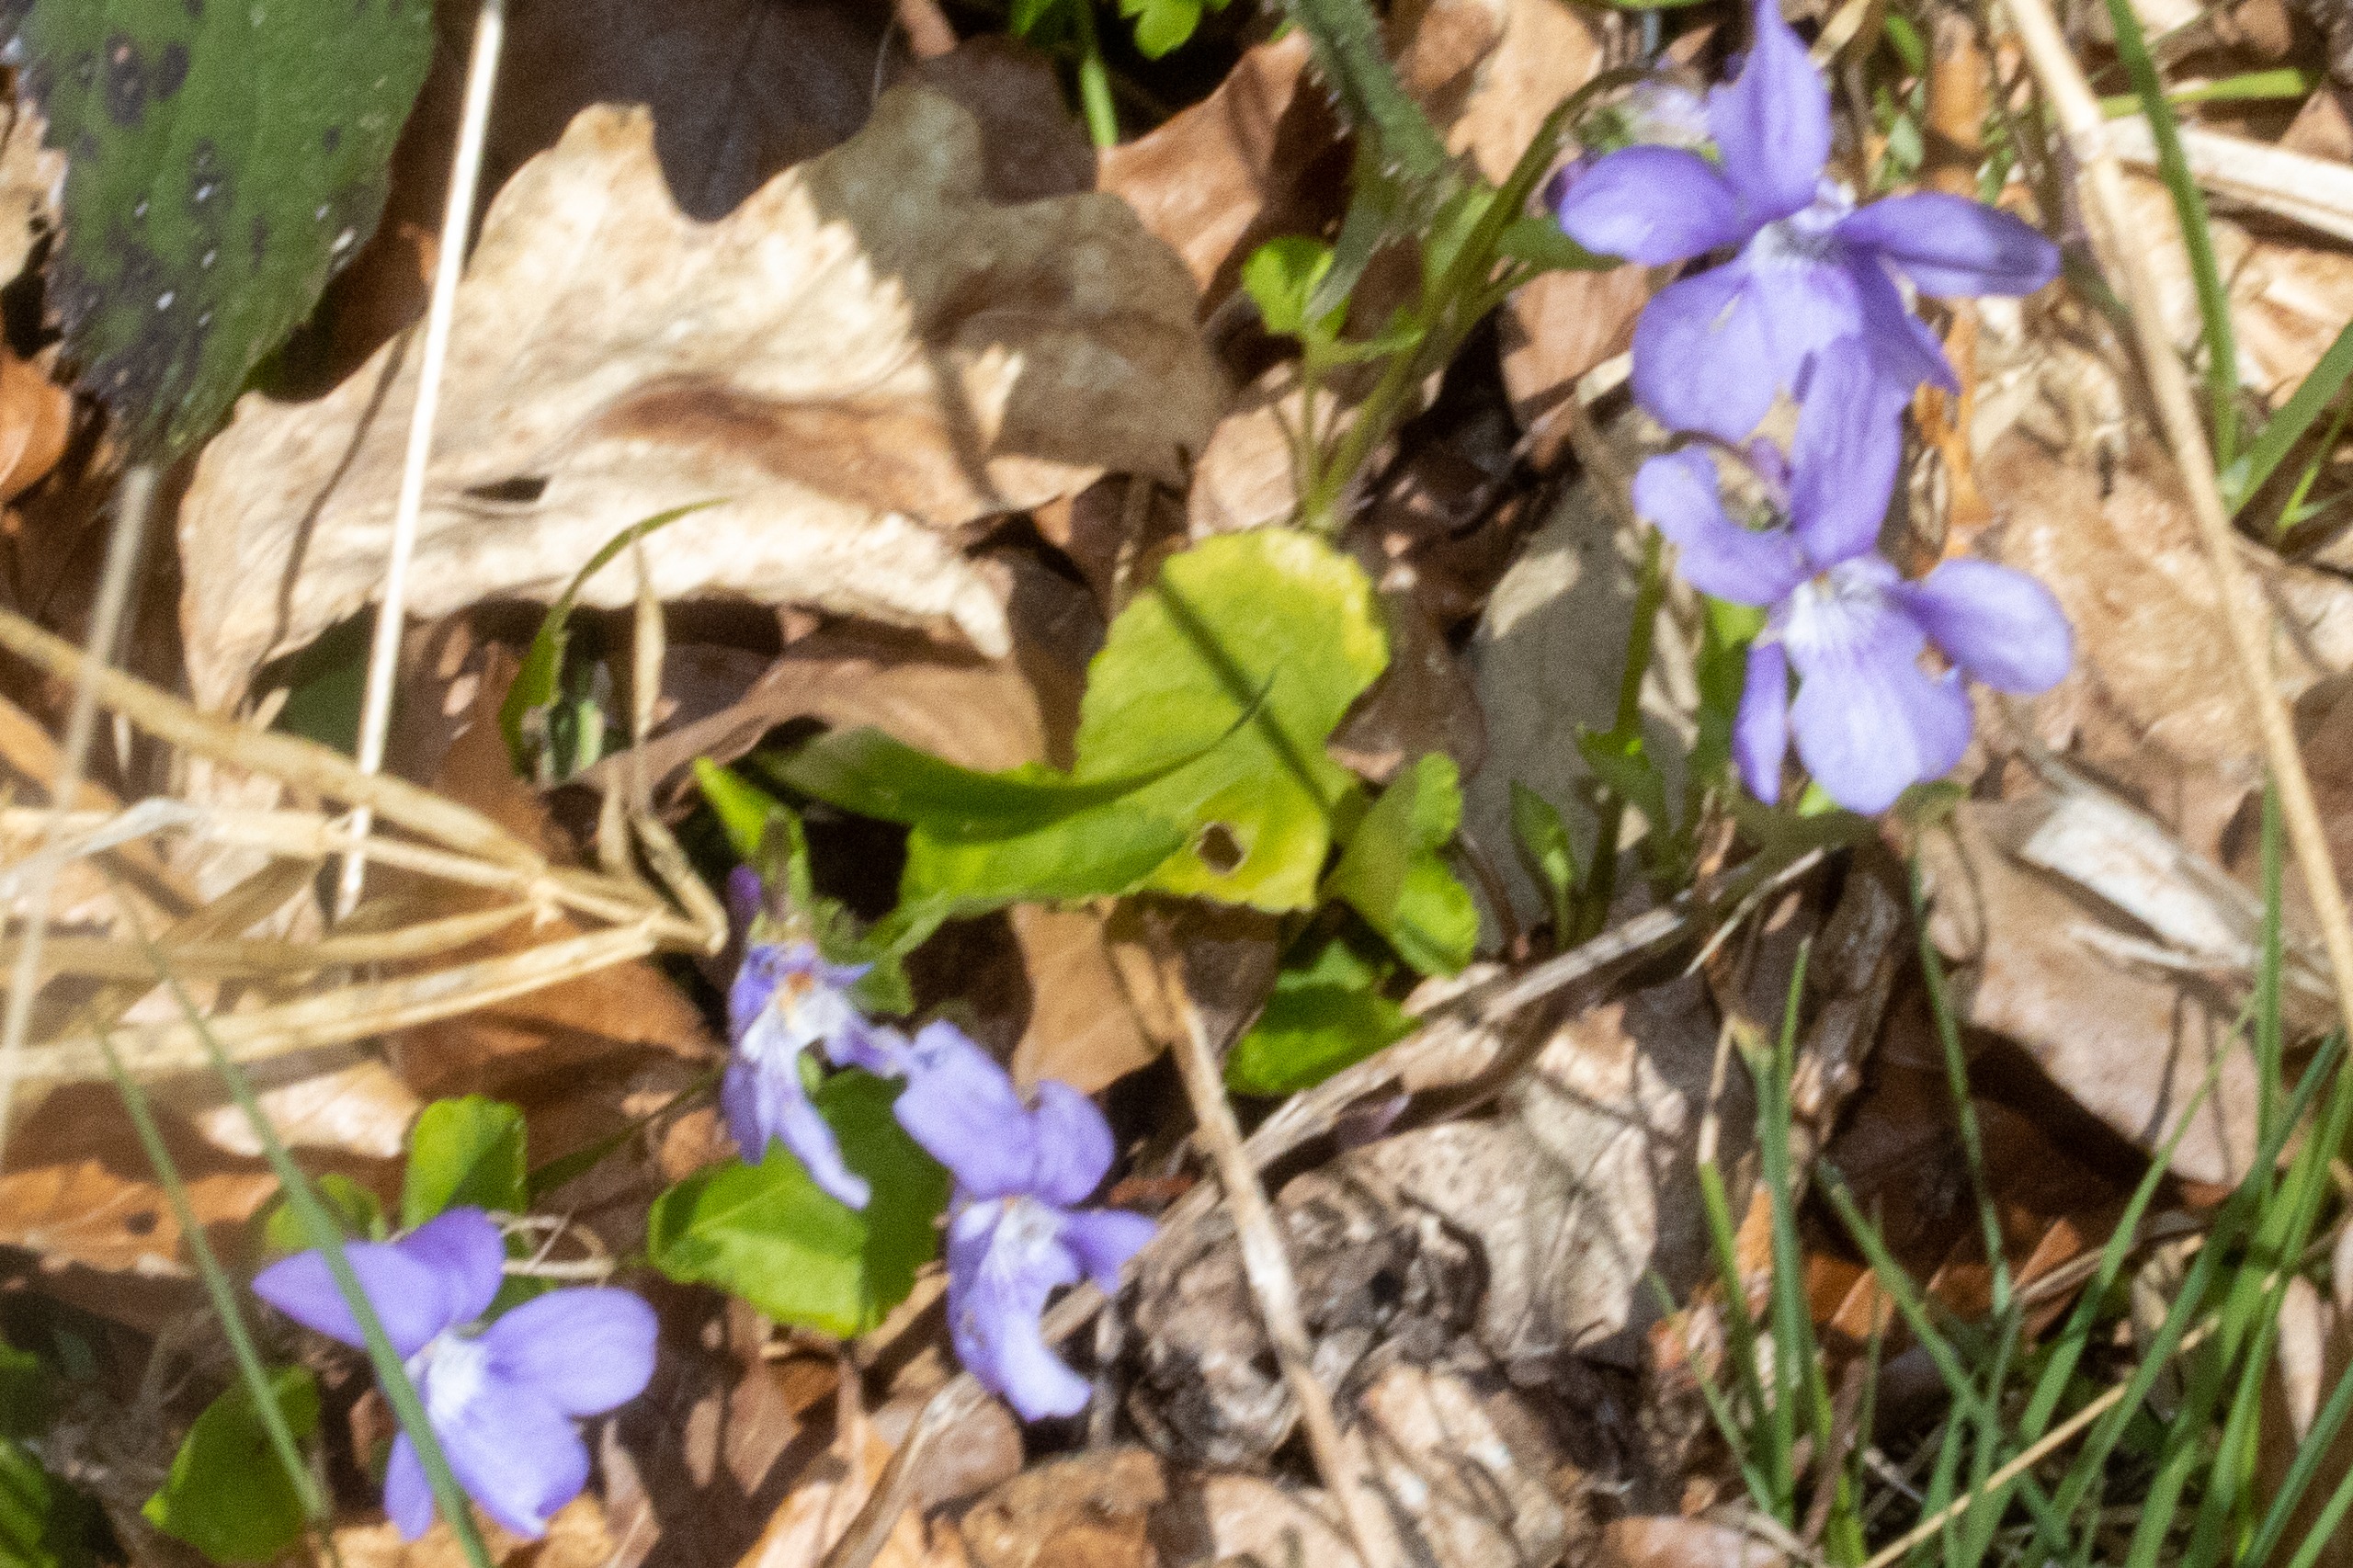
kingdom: Plantae
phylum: Tracheophyta
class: Magnoliopsida
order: Malpighiales
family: Violaceae
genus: Viola
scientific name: Viola reichenbachiana
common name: Skov-viol
